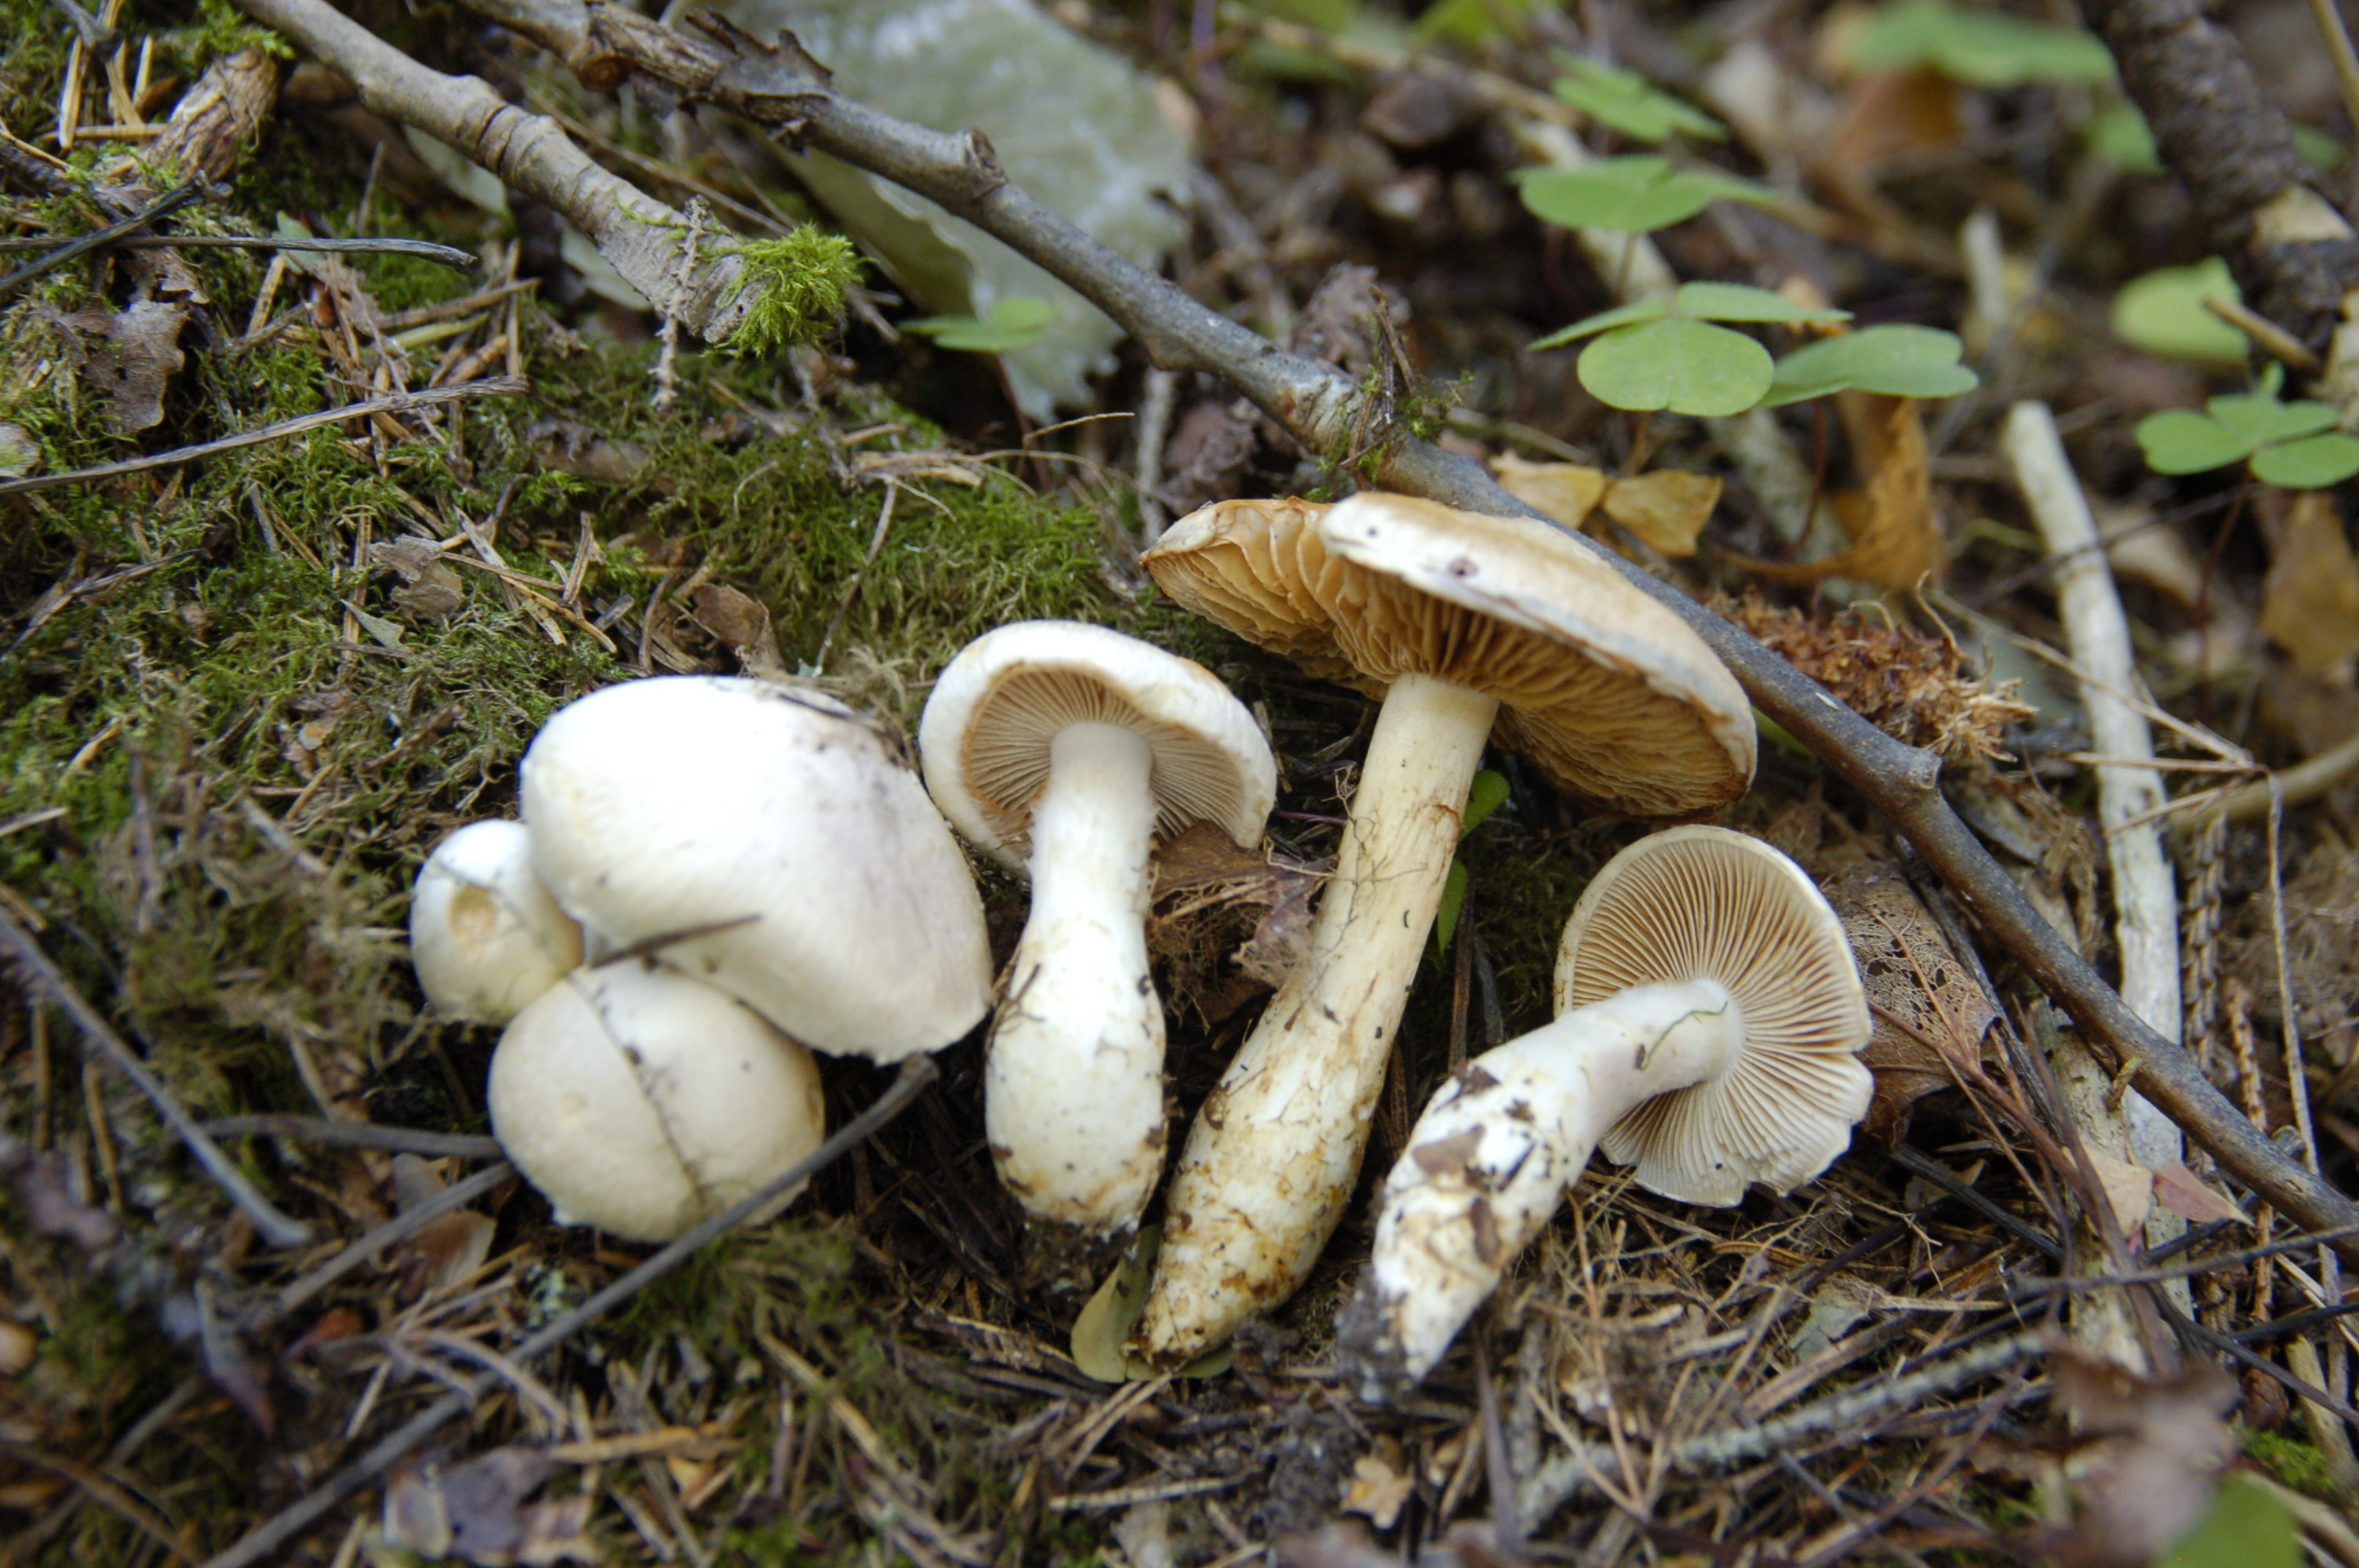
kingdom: Fungi
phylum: Basidiomycota
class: Agaricomycetes
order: Agaricales
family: Cortinariaceae
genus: Phlegmacium
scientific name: Phlegmacium argutum
